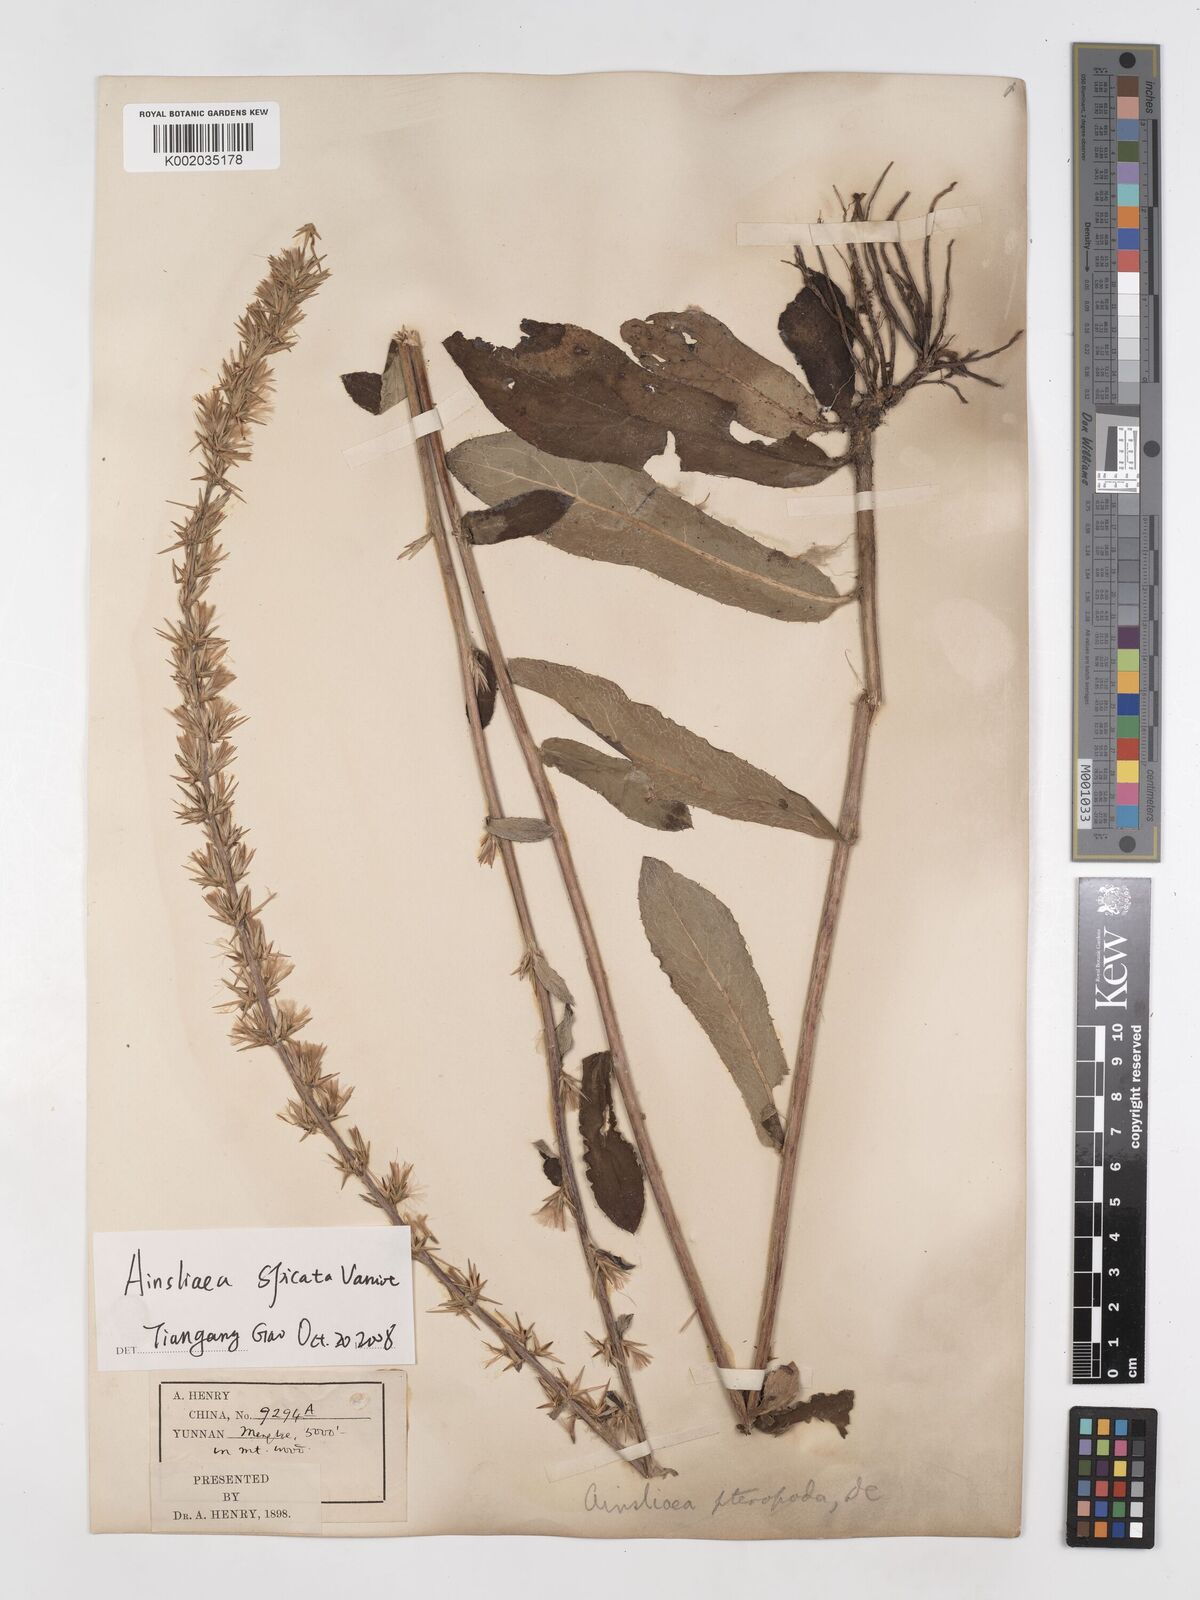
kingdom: Plantae
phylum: Tracheophyta
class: Magnoliopsida
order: Asterales
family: Asteraceae
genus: Ainsliaea
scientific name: Ainsliaea spicata
